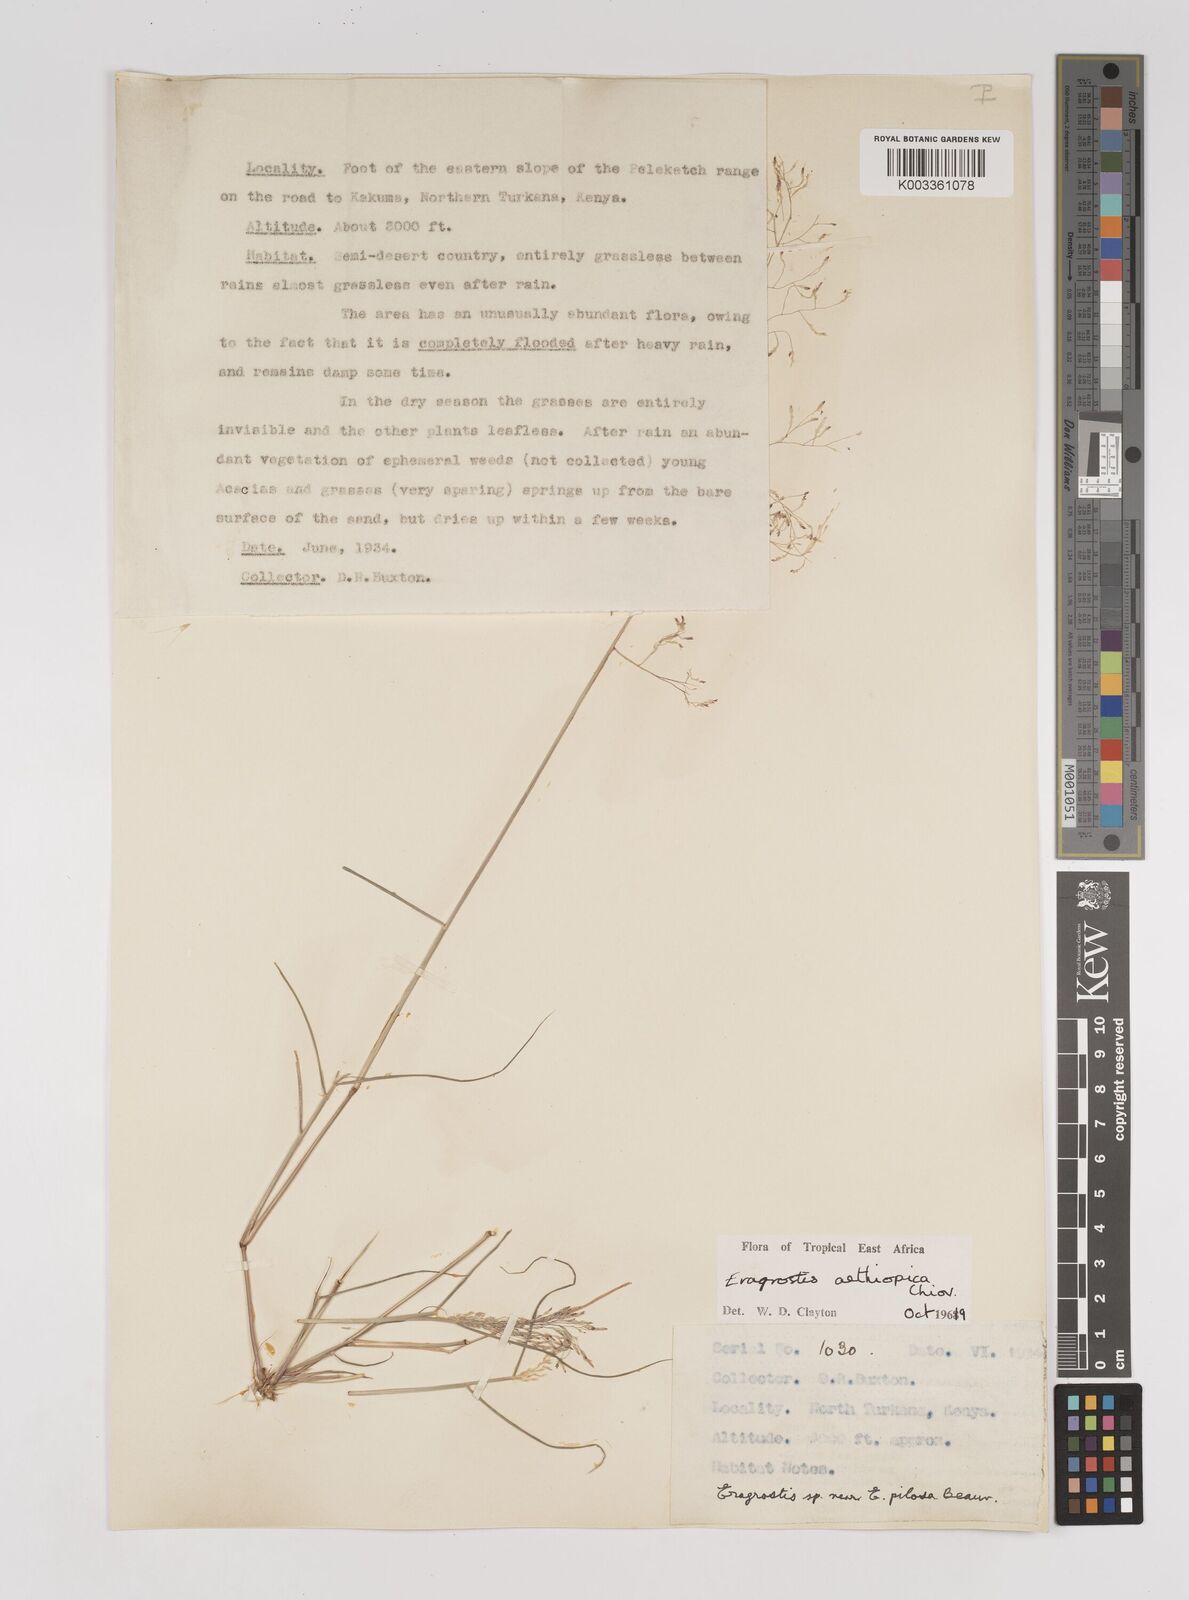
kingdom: Plantae
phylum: Tracheophyta
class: Liliopsida
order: Poales
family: Poaceae
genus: Eragrostis
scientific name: Eragrostis aethiopica
